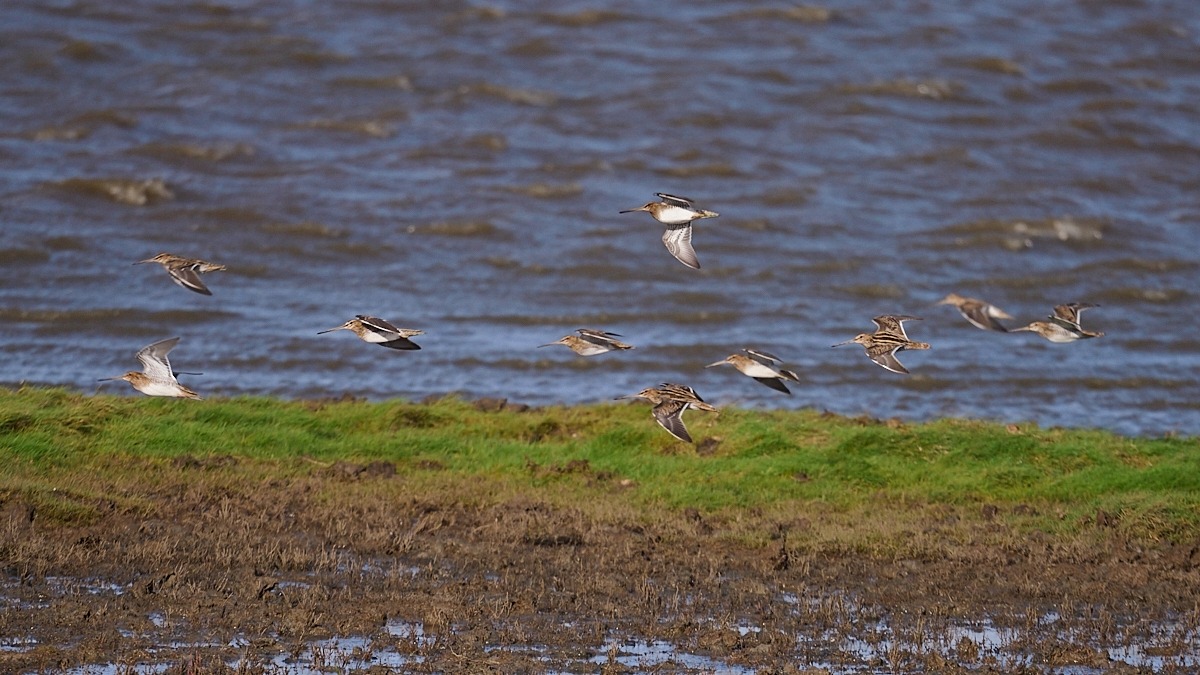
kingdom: Animalia
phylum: Chordata
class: Aves
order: Charadriiformes
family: Scolopacidae
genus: Gallinago
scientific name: Gallinago gallinago
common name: Dobbeltbekkasin
